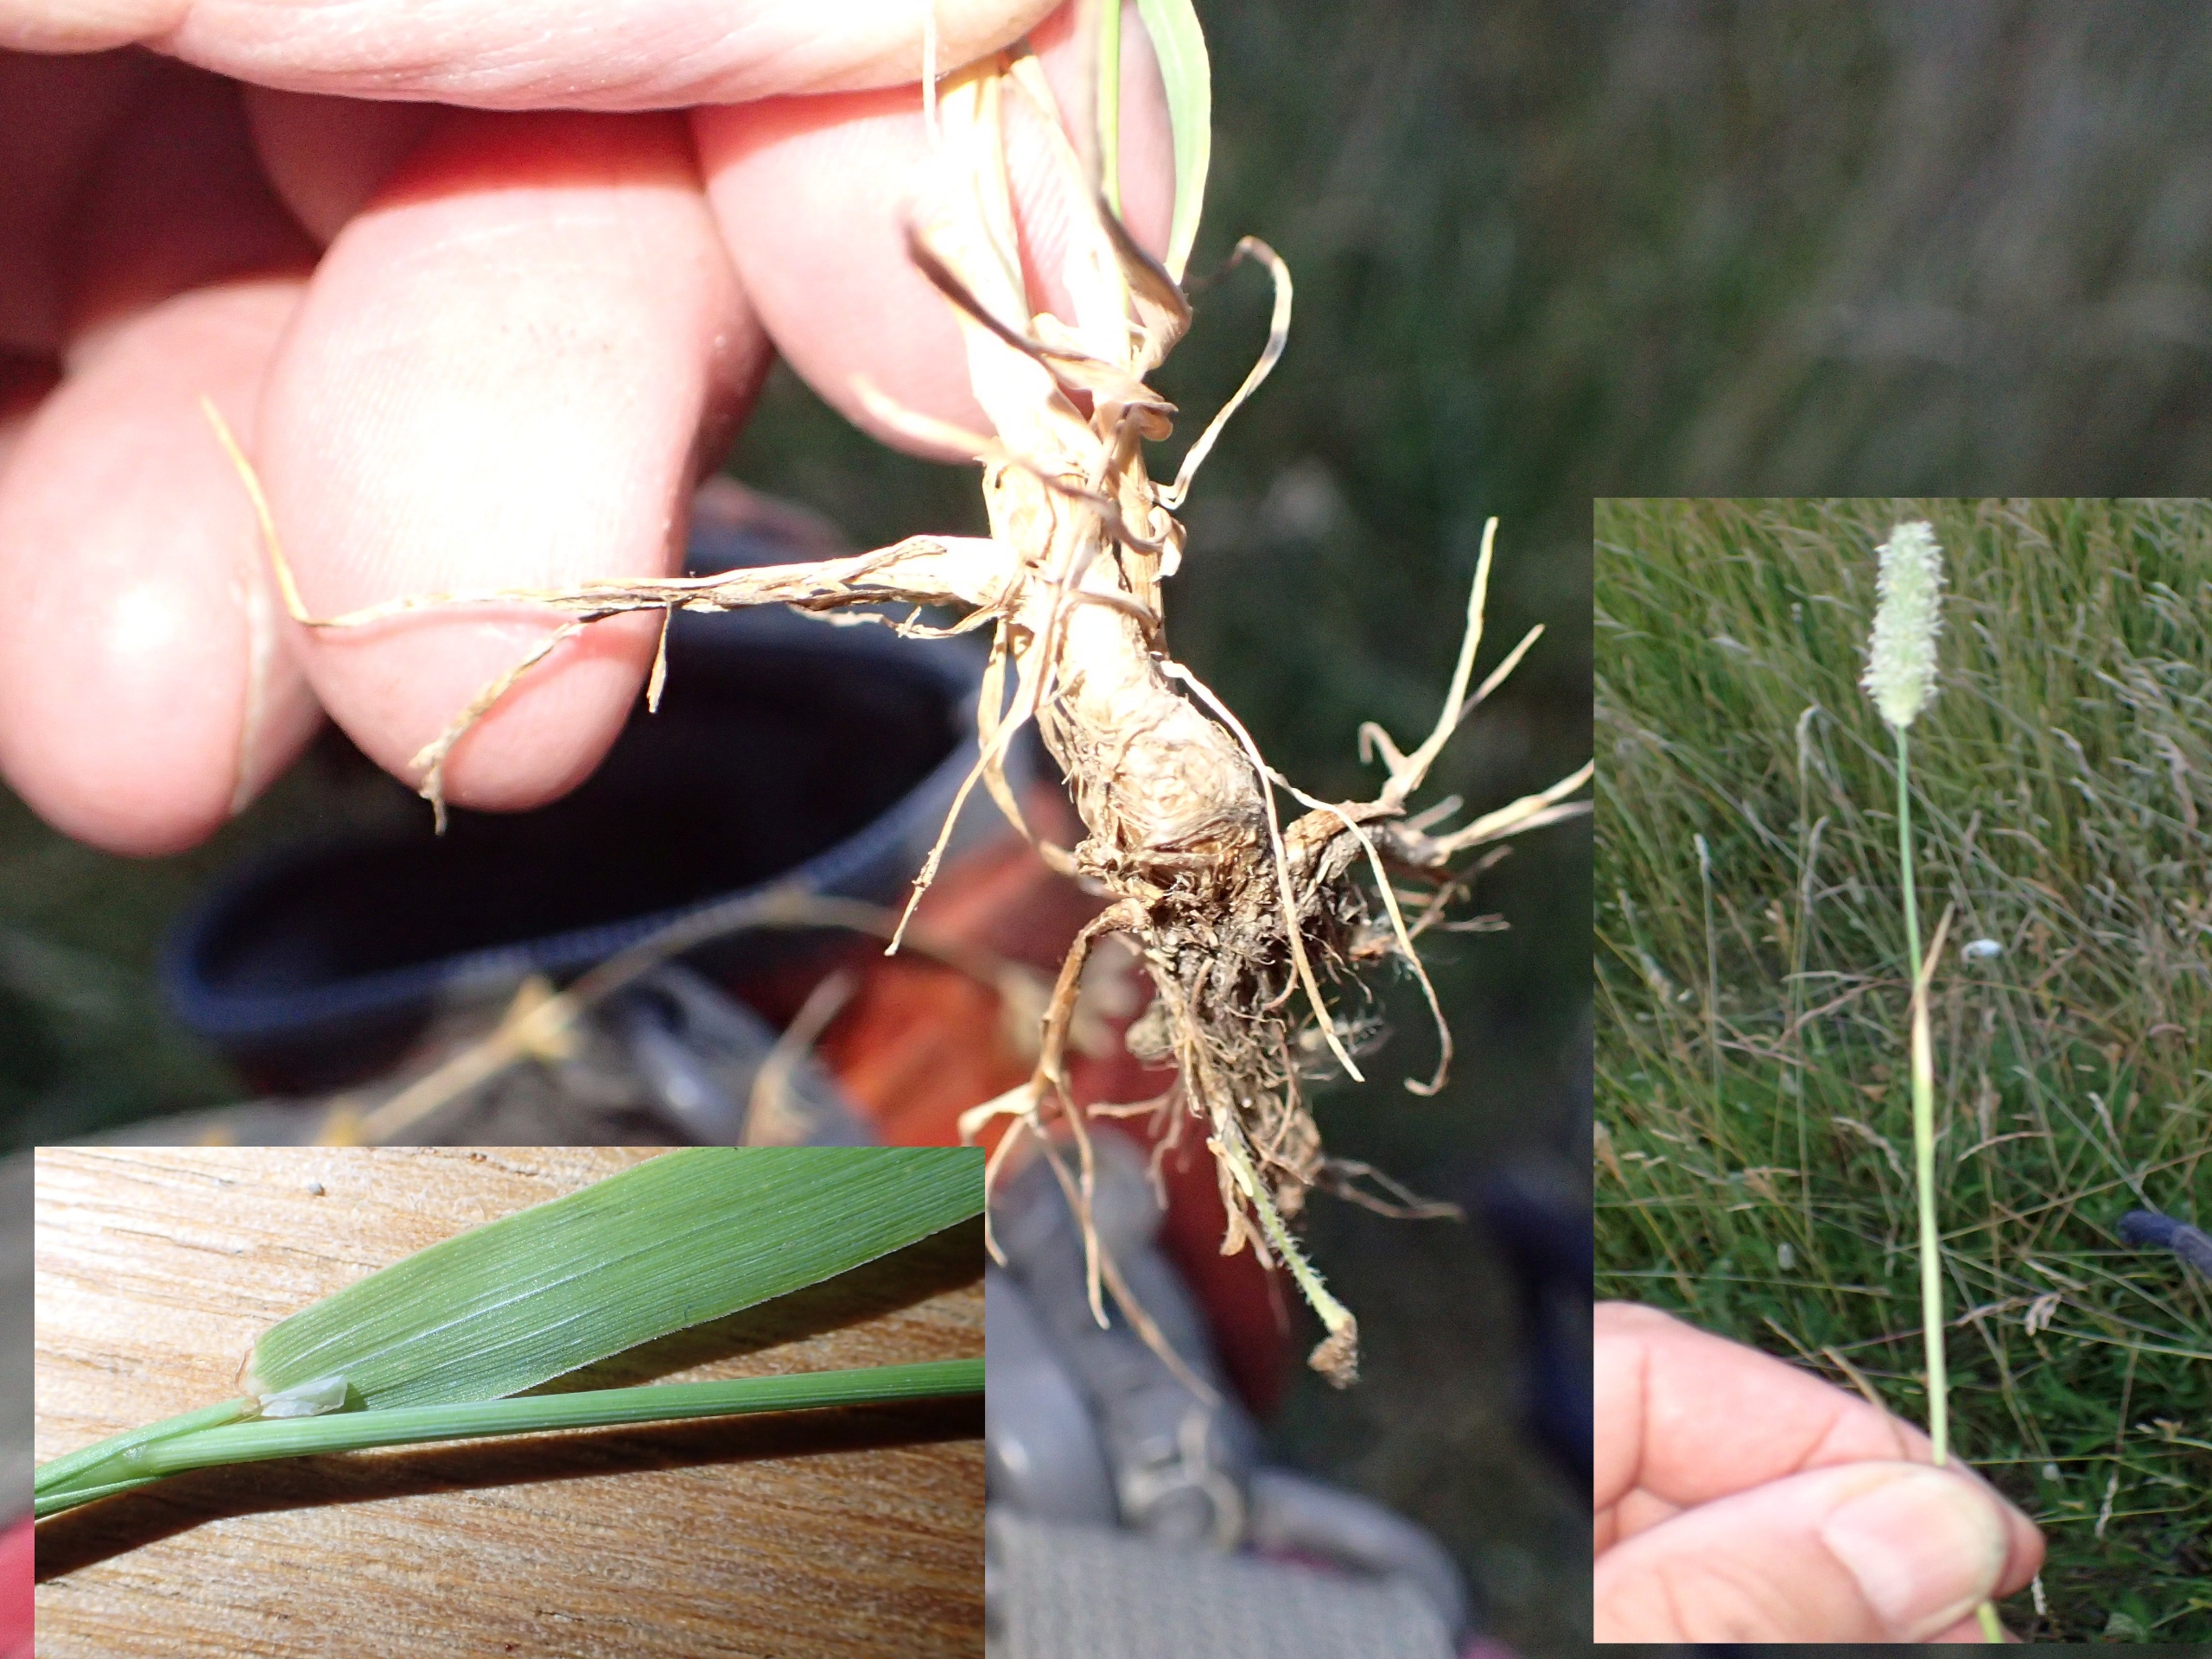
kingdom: Plantae
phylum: Tracheophyta
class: Liliopsida
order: Poales
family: Poaceae
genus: Phleum
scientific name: Phleum pratense
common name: Eng-rottehale
